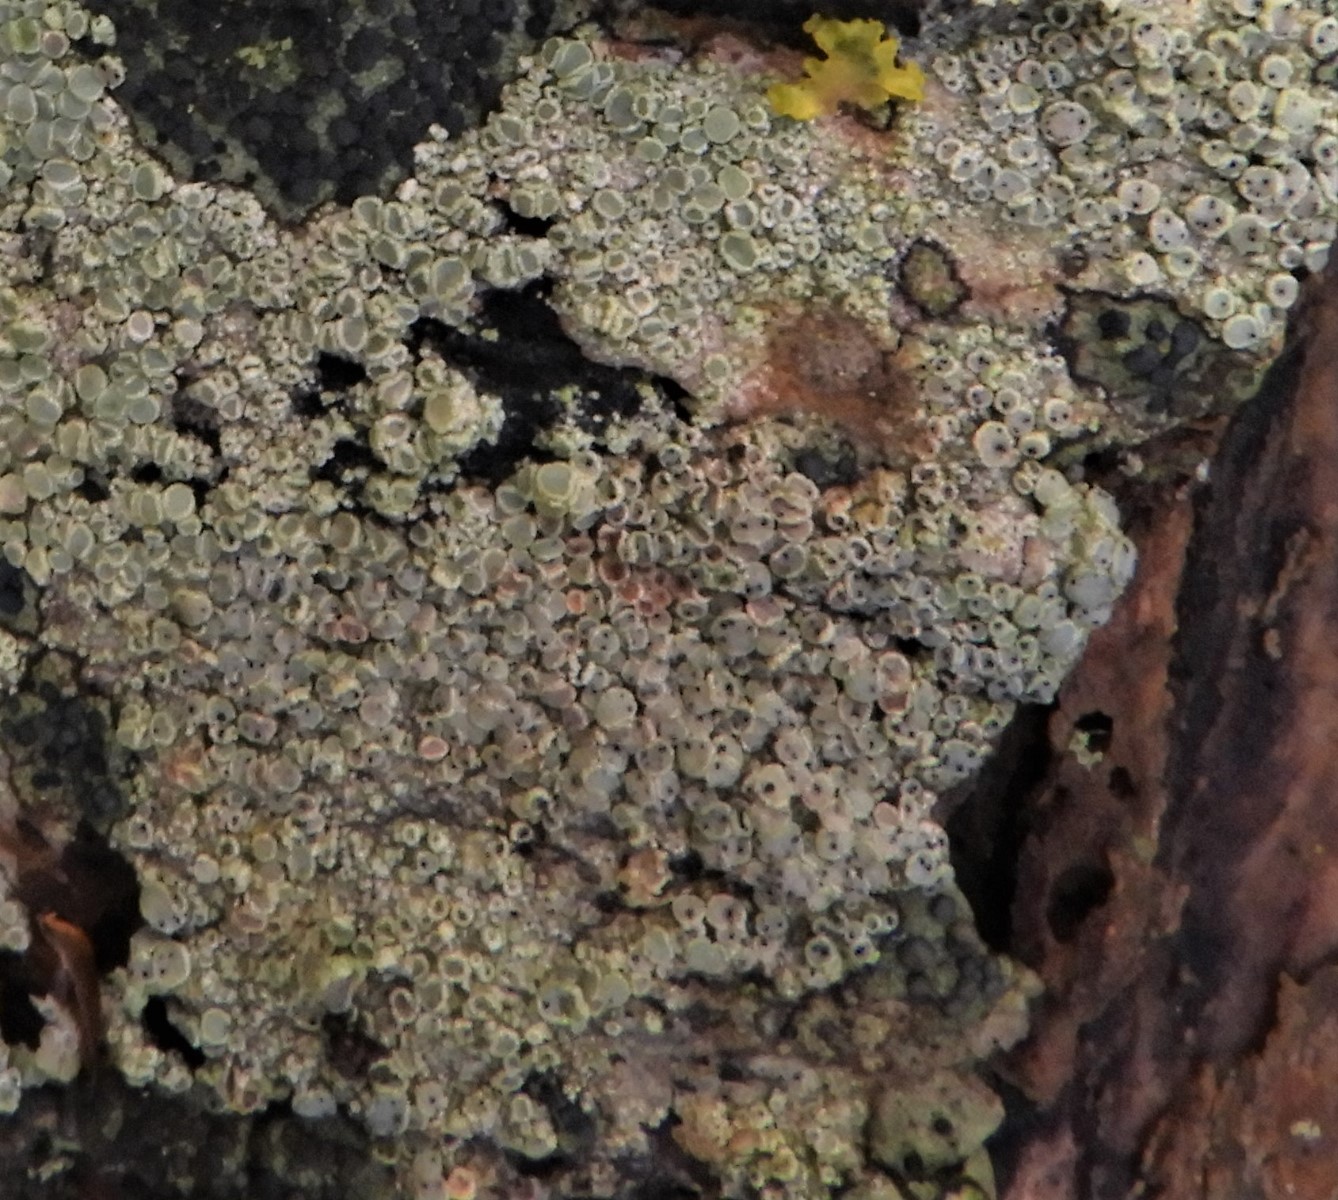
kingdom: Fungi
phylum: Ascomycota
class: Dothideomycetes
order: Pleosporales
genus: Vouauxiella
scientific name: Vouauxiella lichenicola
